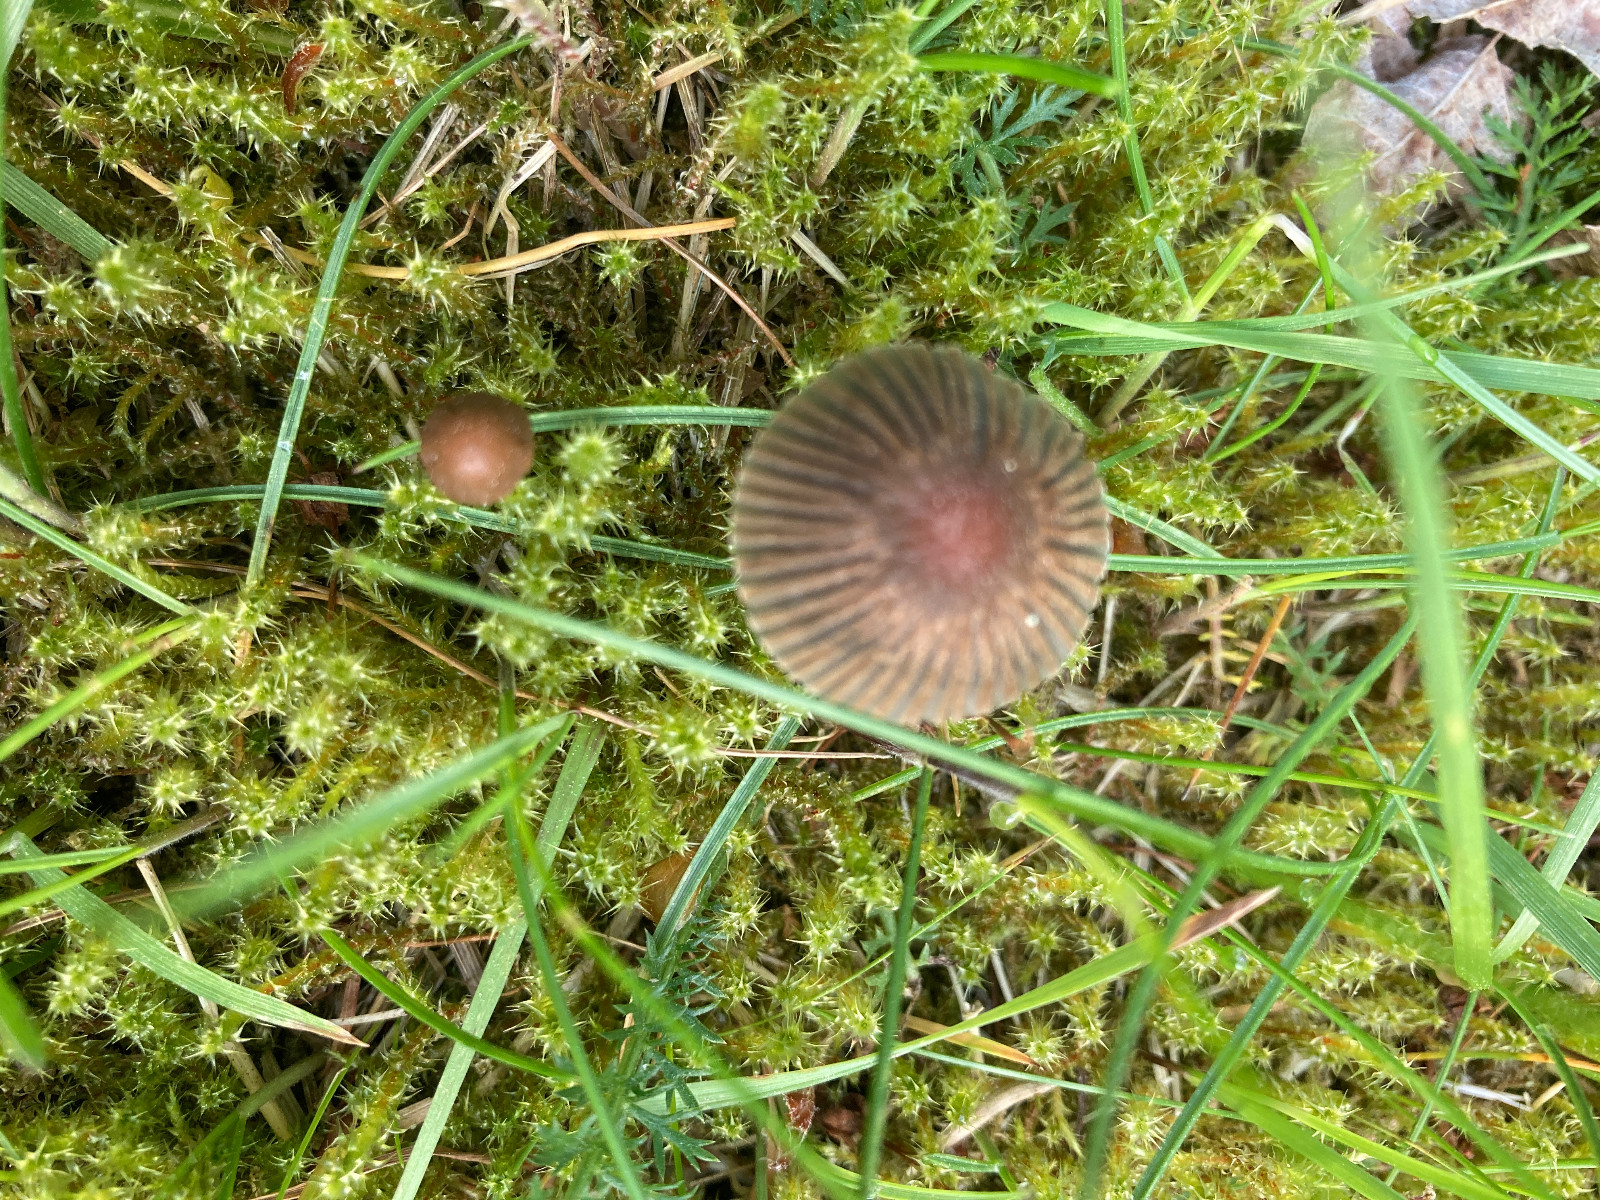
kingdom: Fungi
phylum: Basidiomycota
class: Agaricomycetes
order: Agaricales
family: Psathyrellaceae
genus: Parasola
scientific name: Parasola
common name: hjulhat
